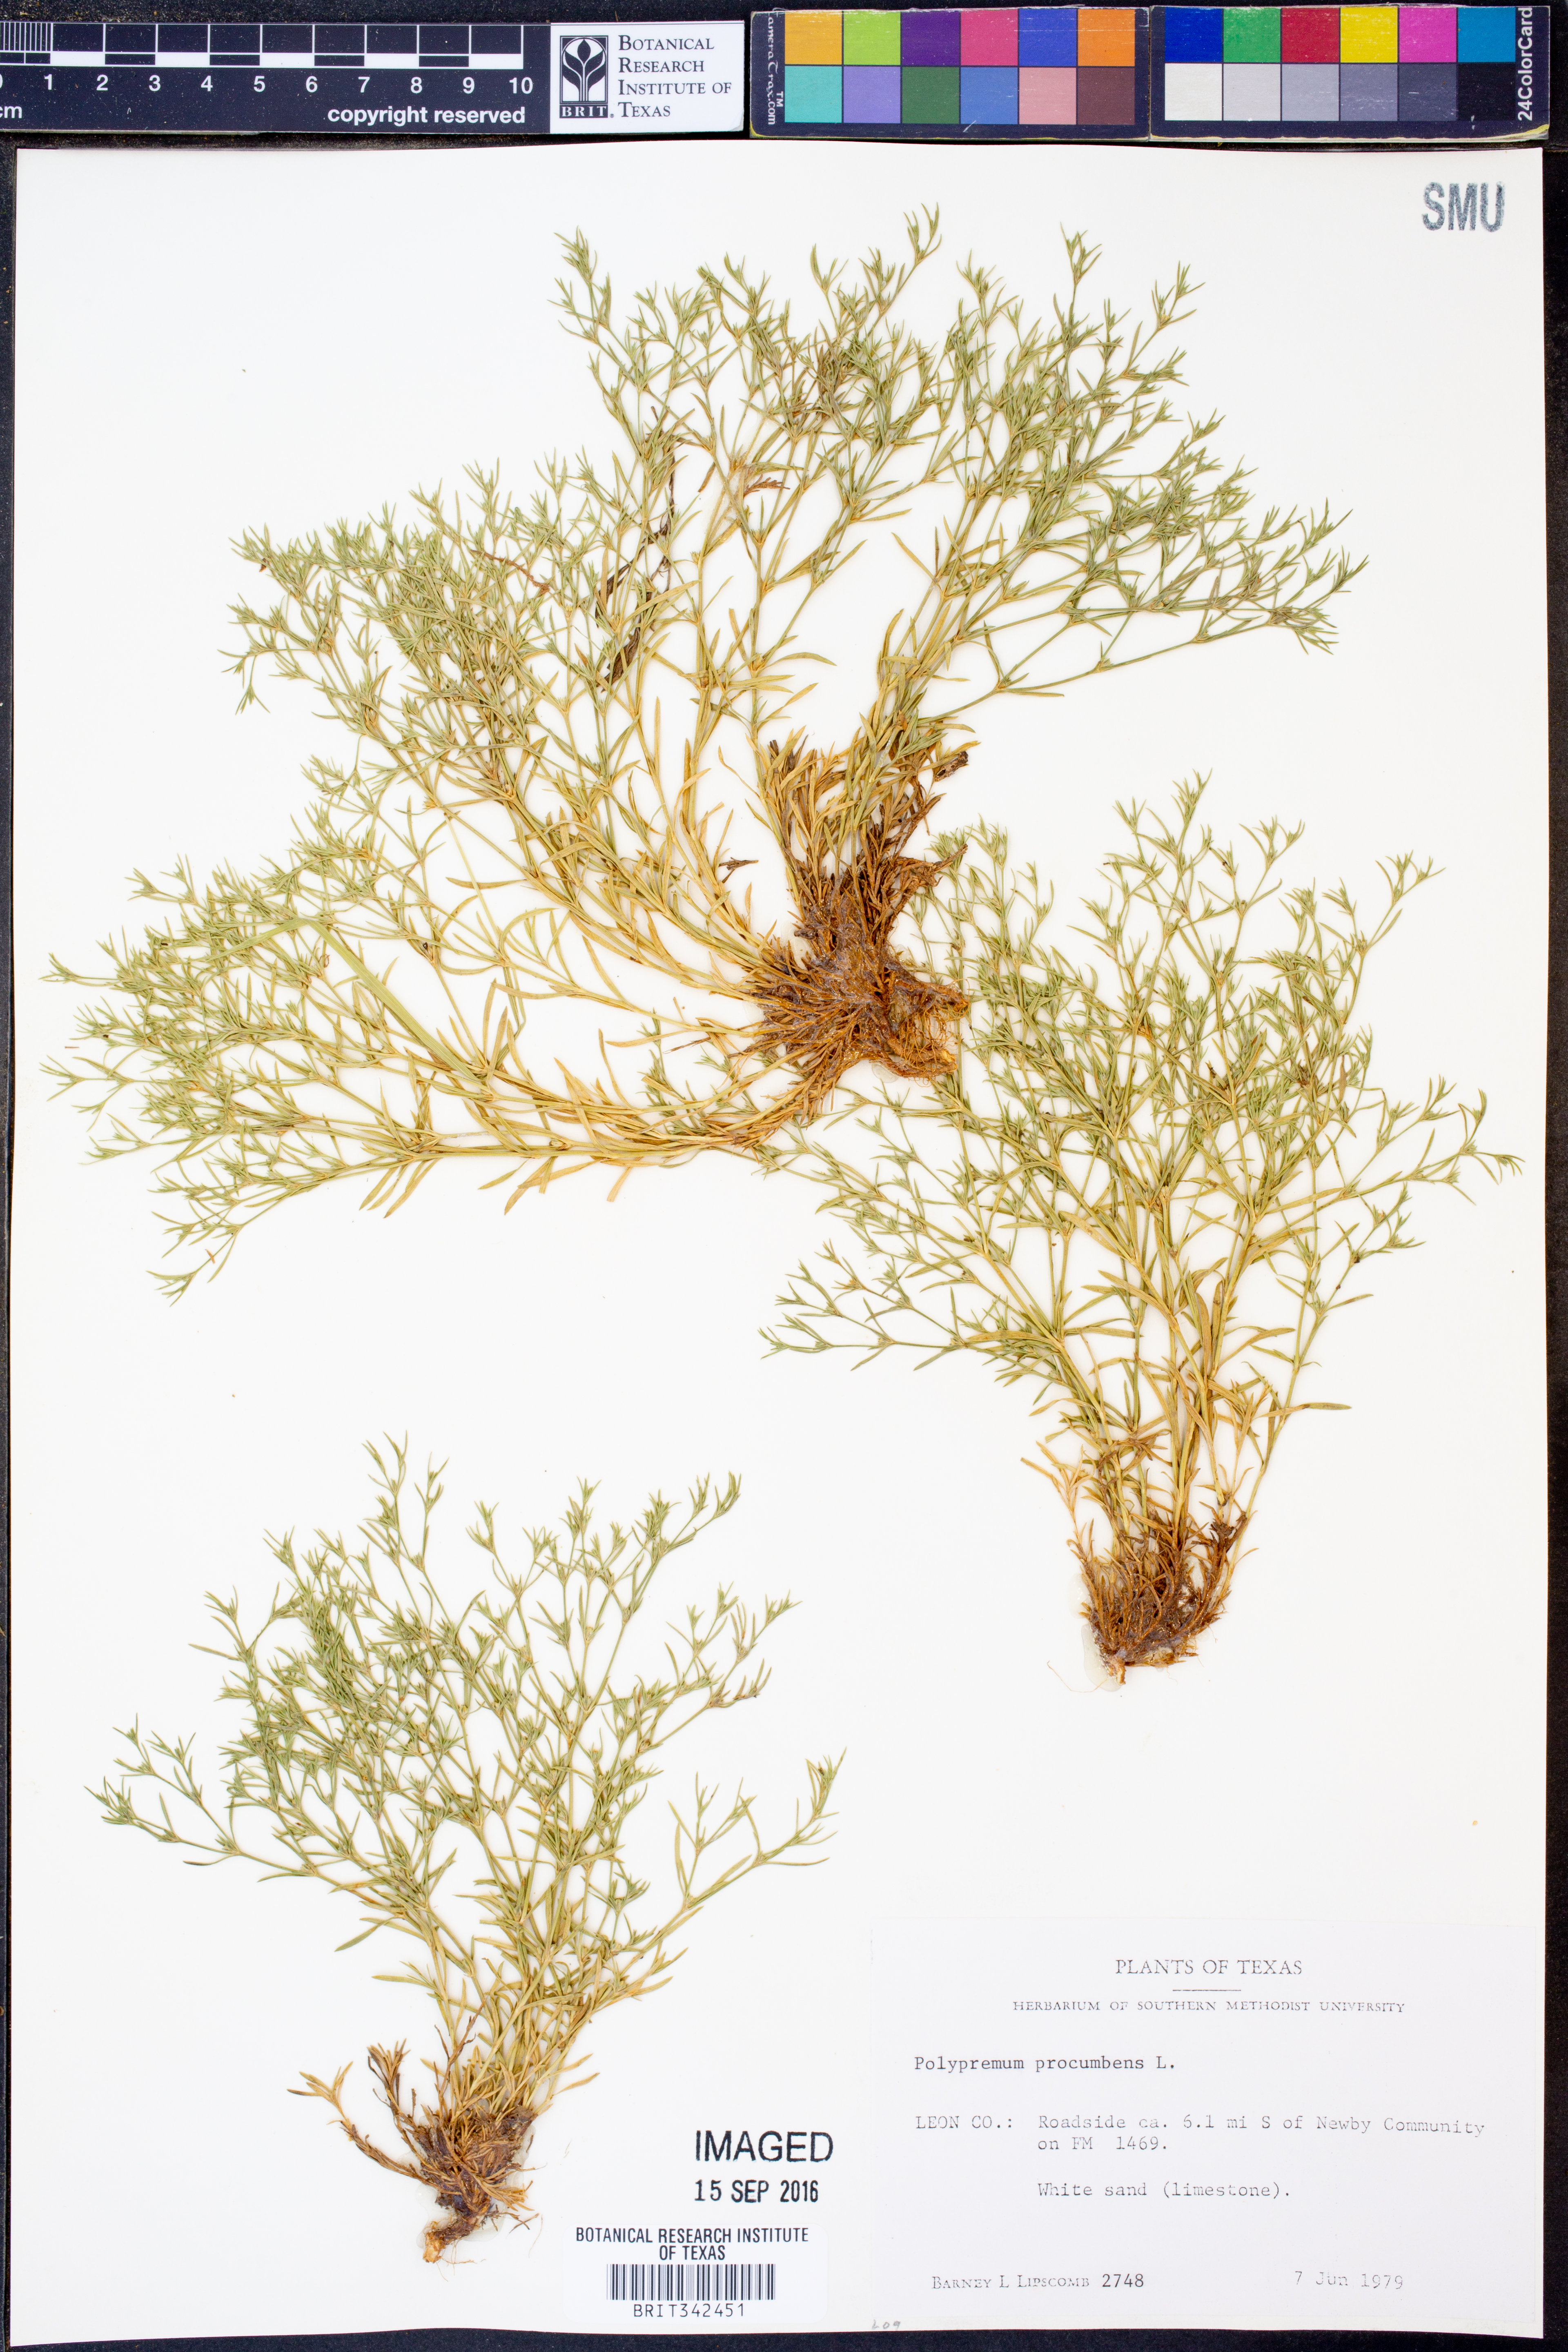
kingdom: Plantae
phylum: Tracheophyta
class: Magnoliopsida
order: Lamiales
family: Tetrachondraceae
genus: Polypremum
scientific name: Polypremum procumbens
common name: Juniper-leaf
